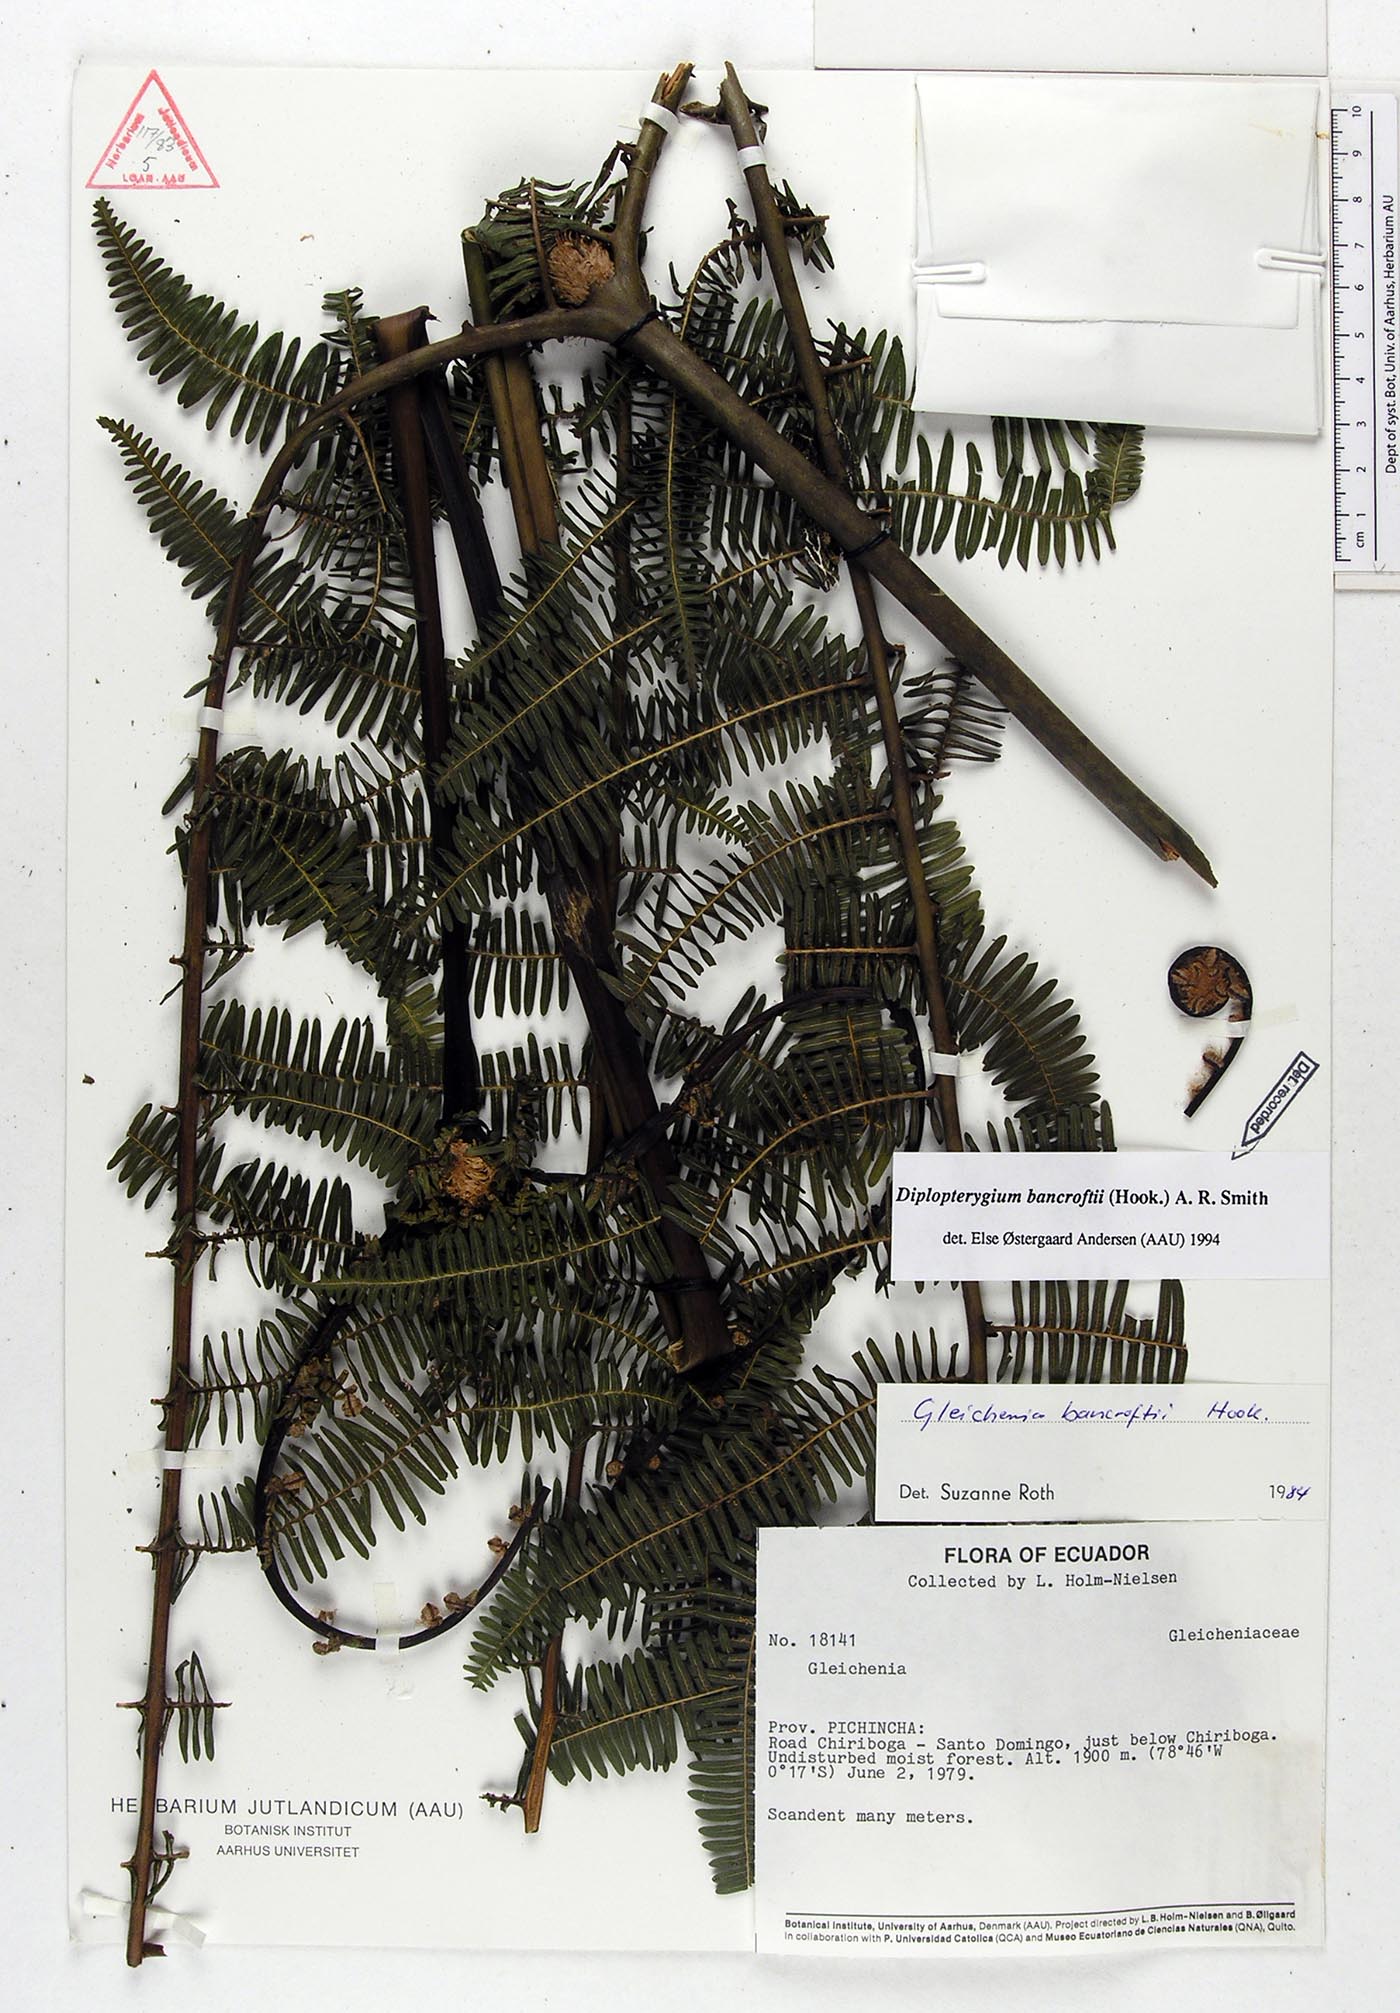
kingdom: Plantae
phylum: Tracheophyta
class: Polypodiopsida
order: Gleicheniales
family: Gleicheniaceae
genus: Diplopterygium
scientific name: Diplopterygium bancroftii
